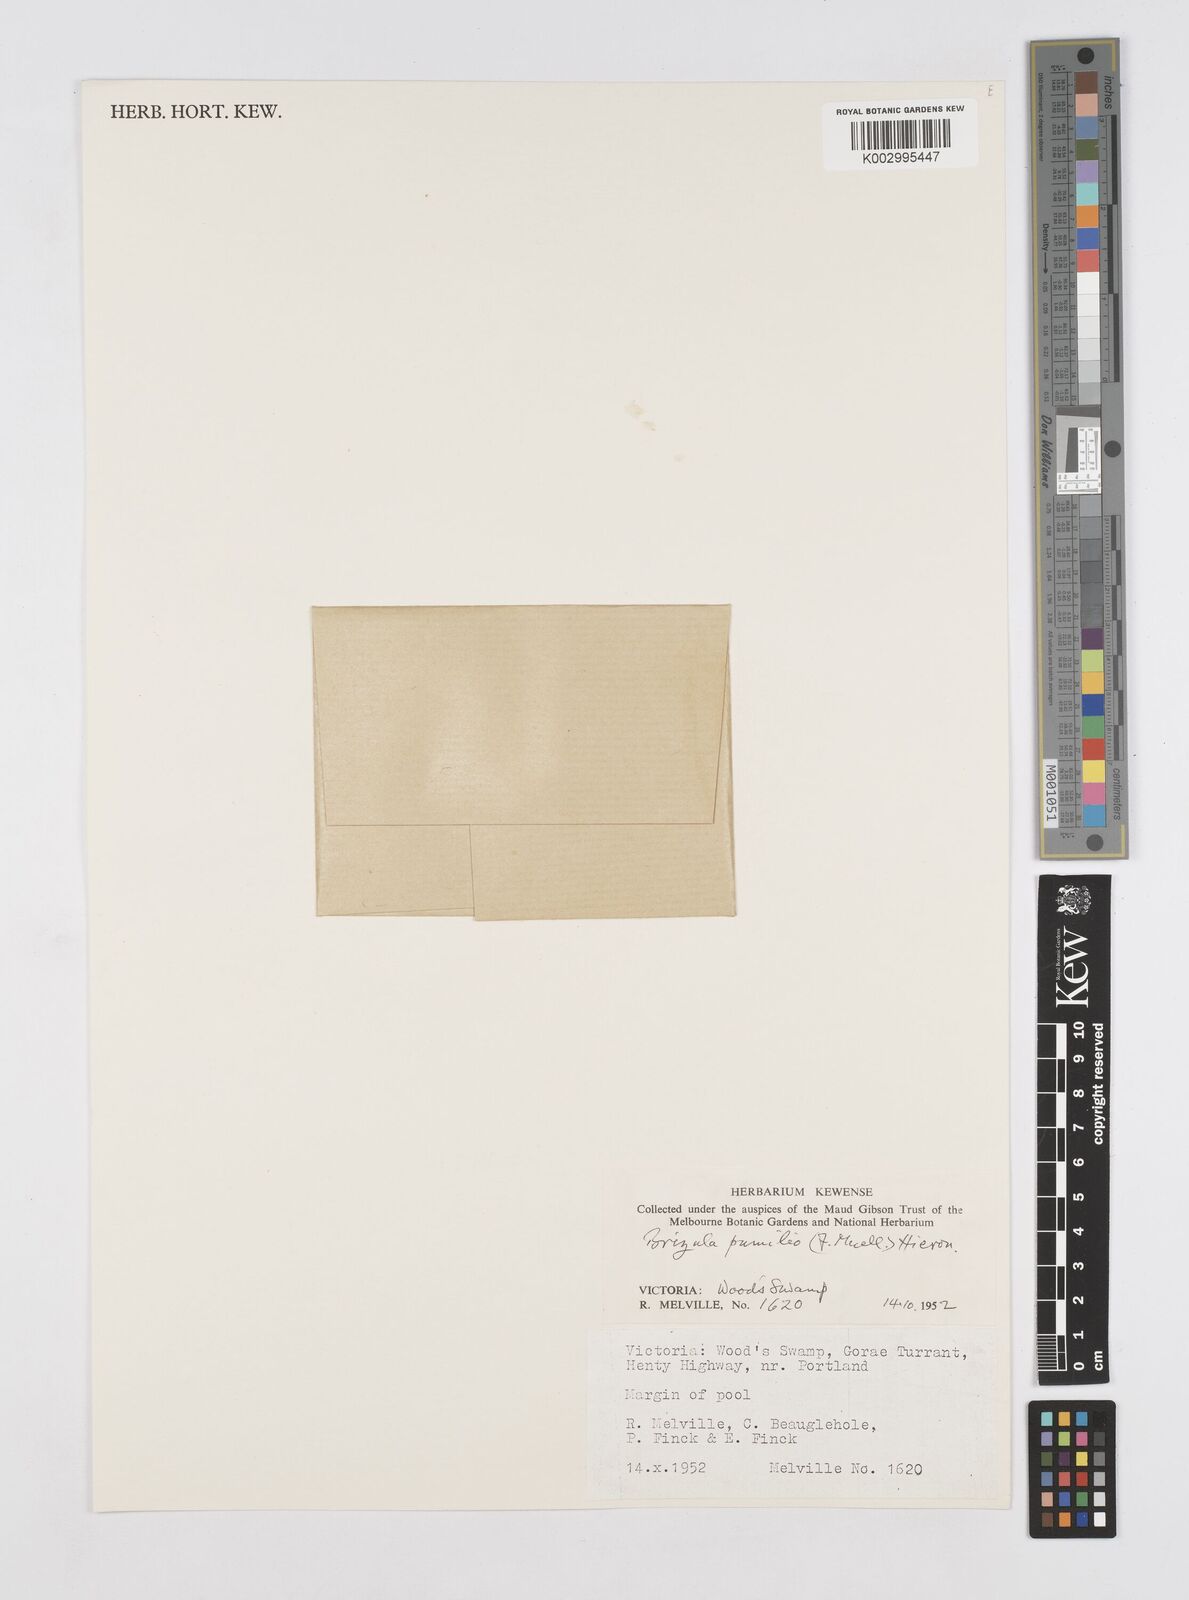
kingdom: Plantae
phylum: Tracheophyta
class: Liliopsida
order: Poales
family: Restionaceae
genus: Aphelia
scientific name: Aphelia pumilio
